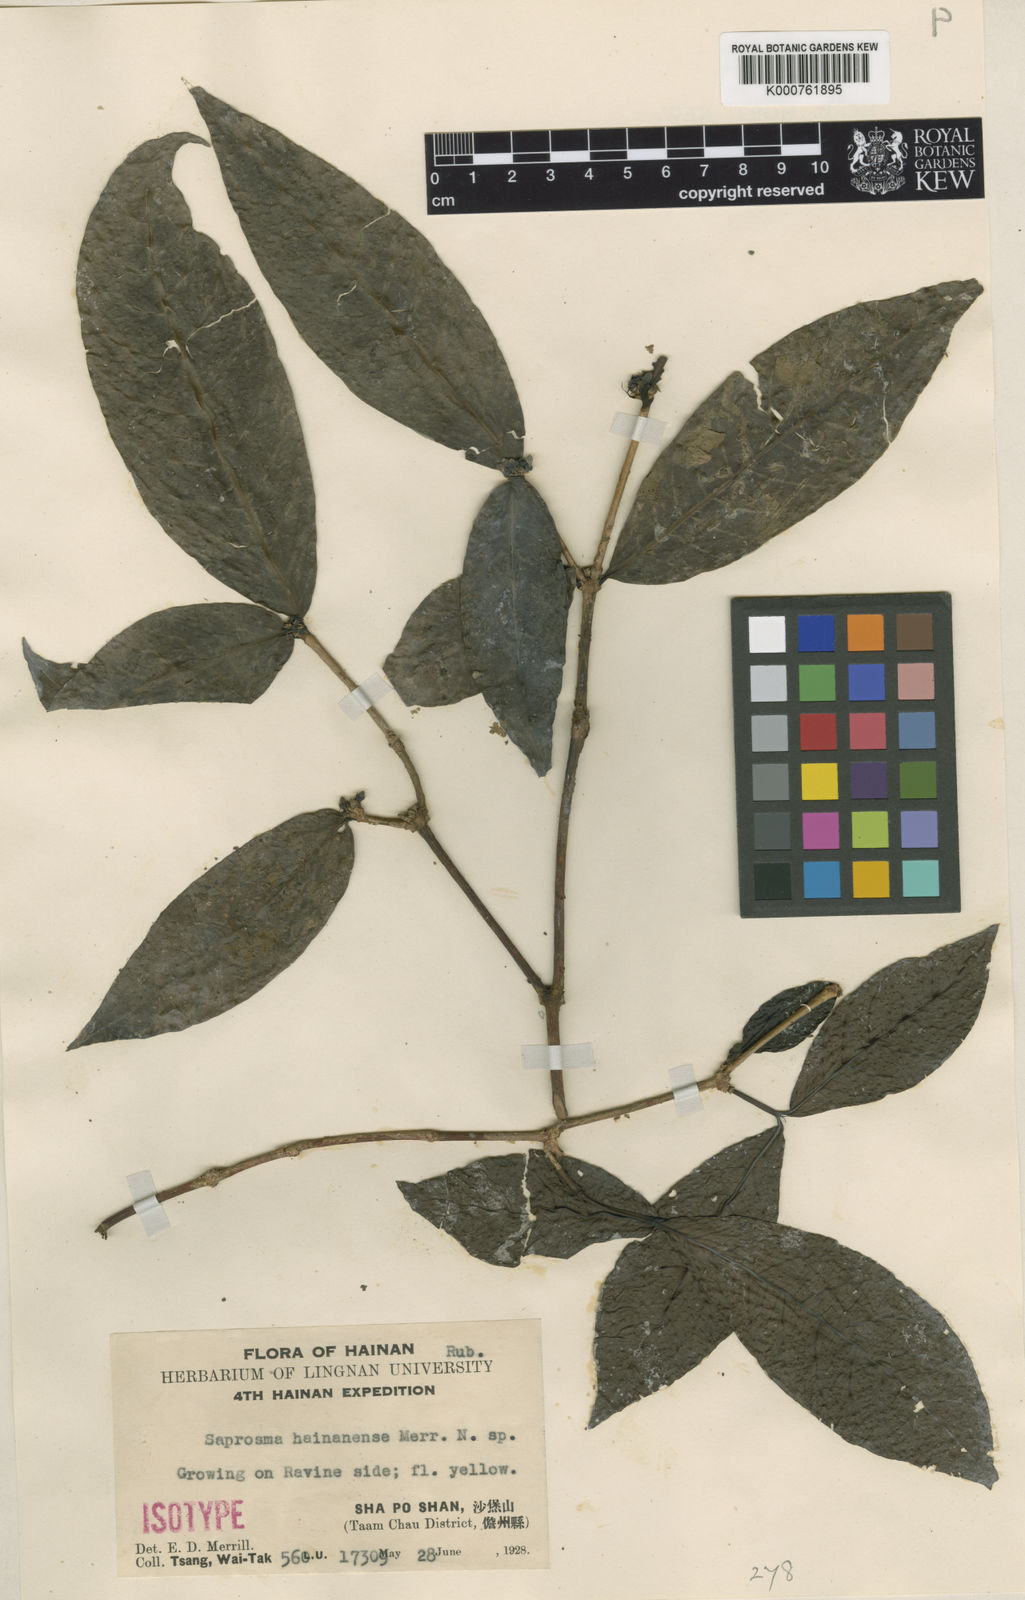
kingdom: Plantae
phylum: Tracheophyta
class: Magnoliopsida
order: Gentianales
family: Rubiaceae
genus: Saprosma
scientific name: Saprosma hainanensis
